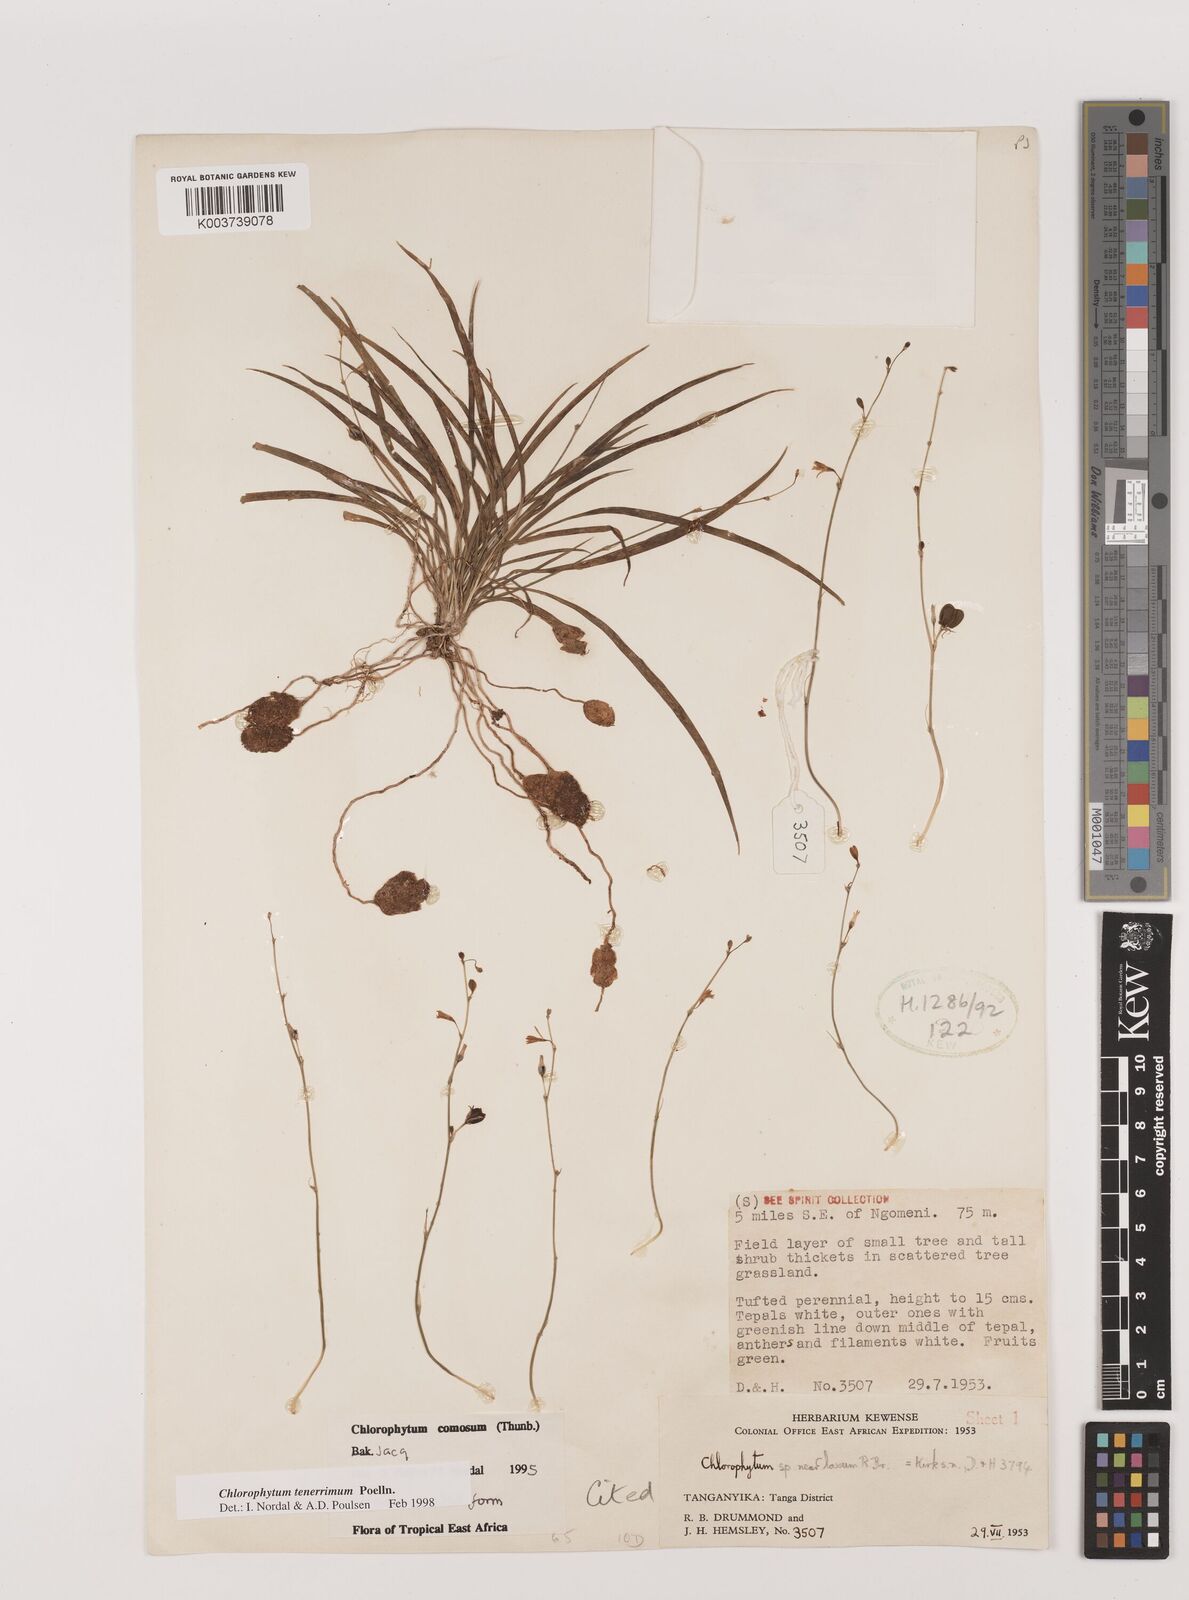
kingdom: Plantae
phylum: Tracheophyta
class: Liliopsida
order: Asparagales
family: Asparagaceae
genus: Chlorophytum
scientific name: Chlorophytum tenerrimum
